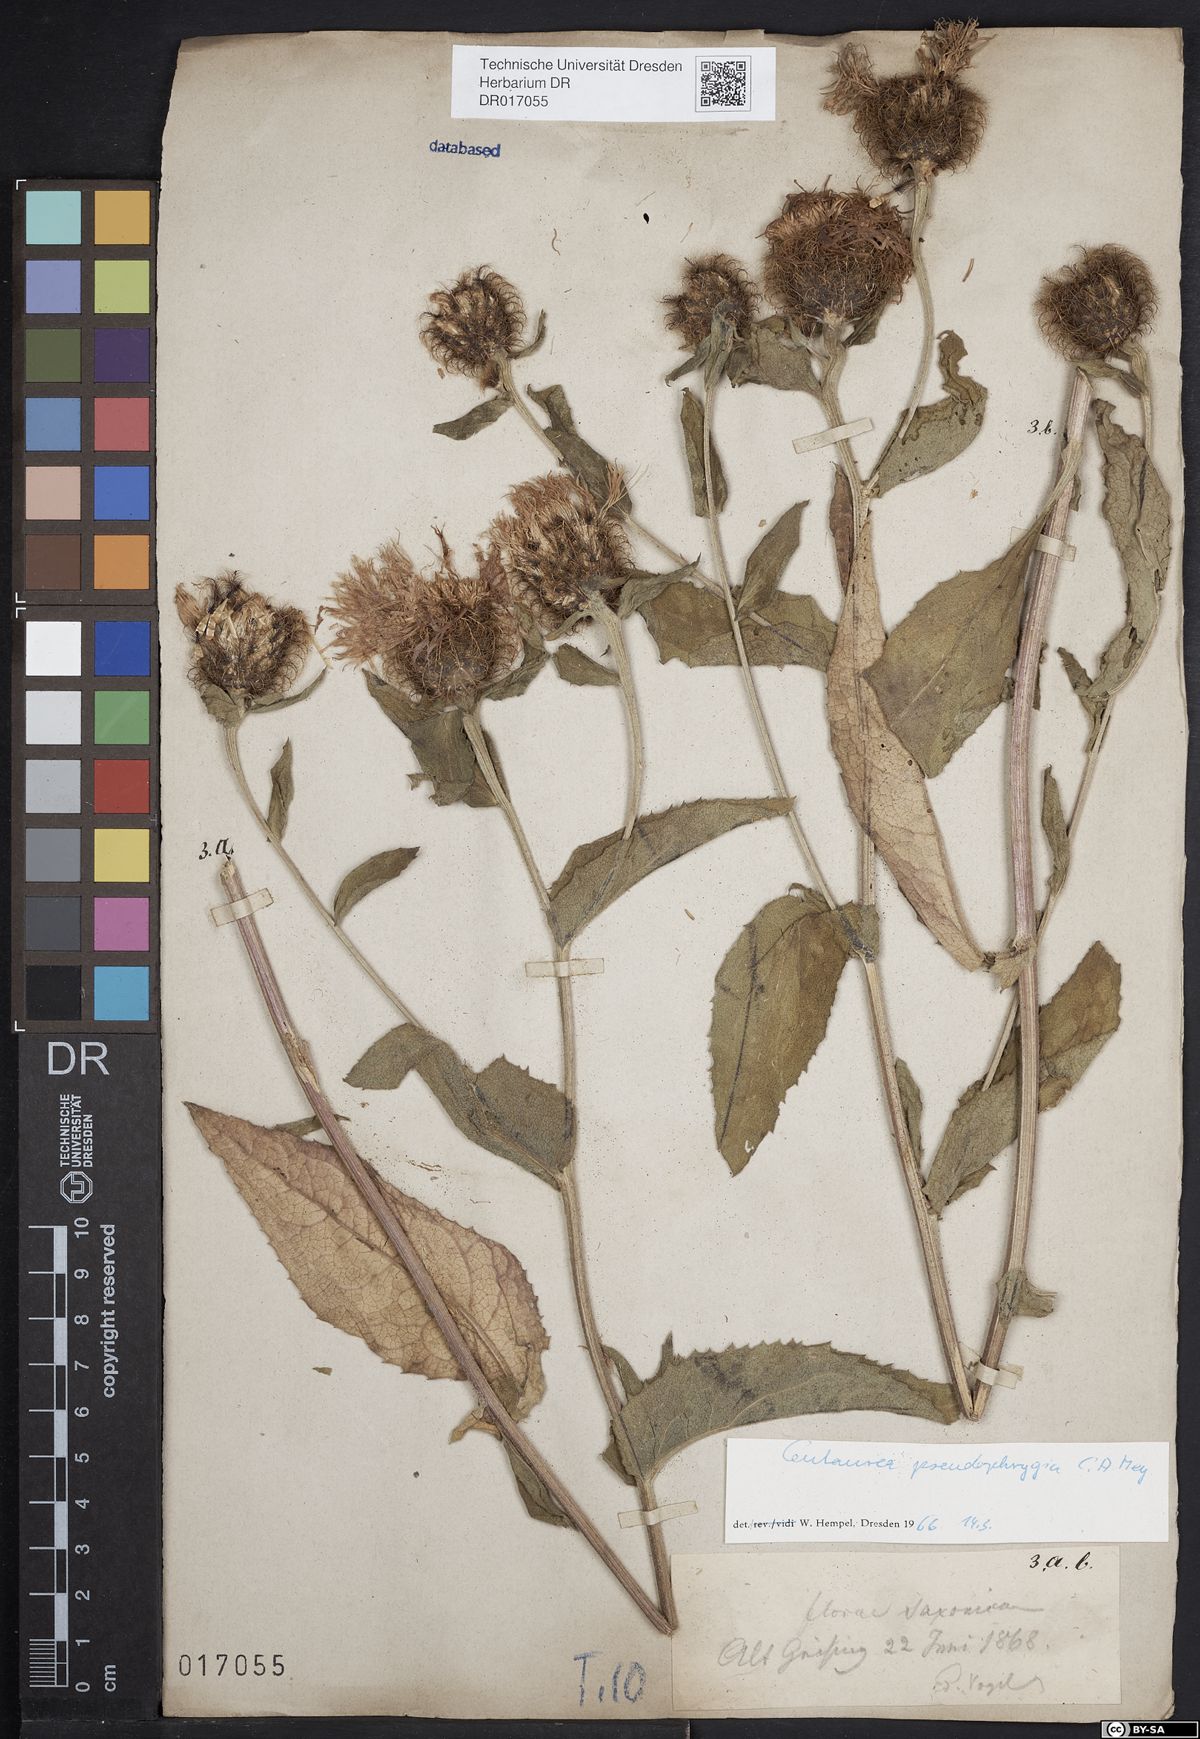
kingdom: Plantae
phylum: Tracheophyta
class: Magnoliopsida
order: Asterales
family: Asteraceae
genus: Centaurea
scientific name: Centaurea pseudophrygia
